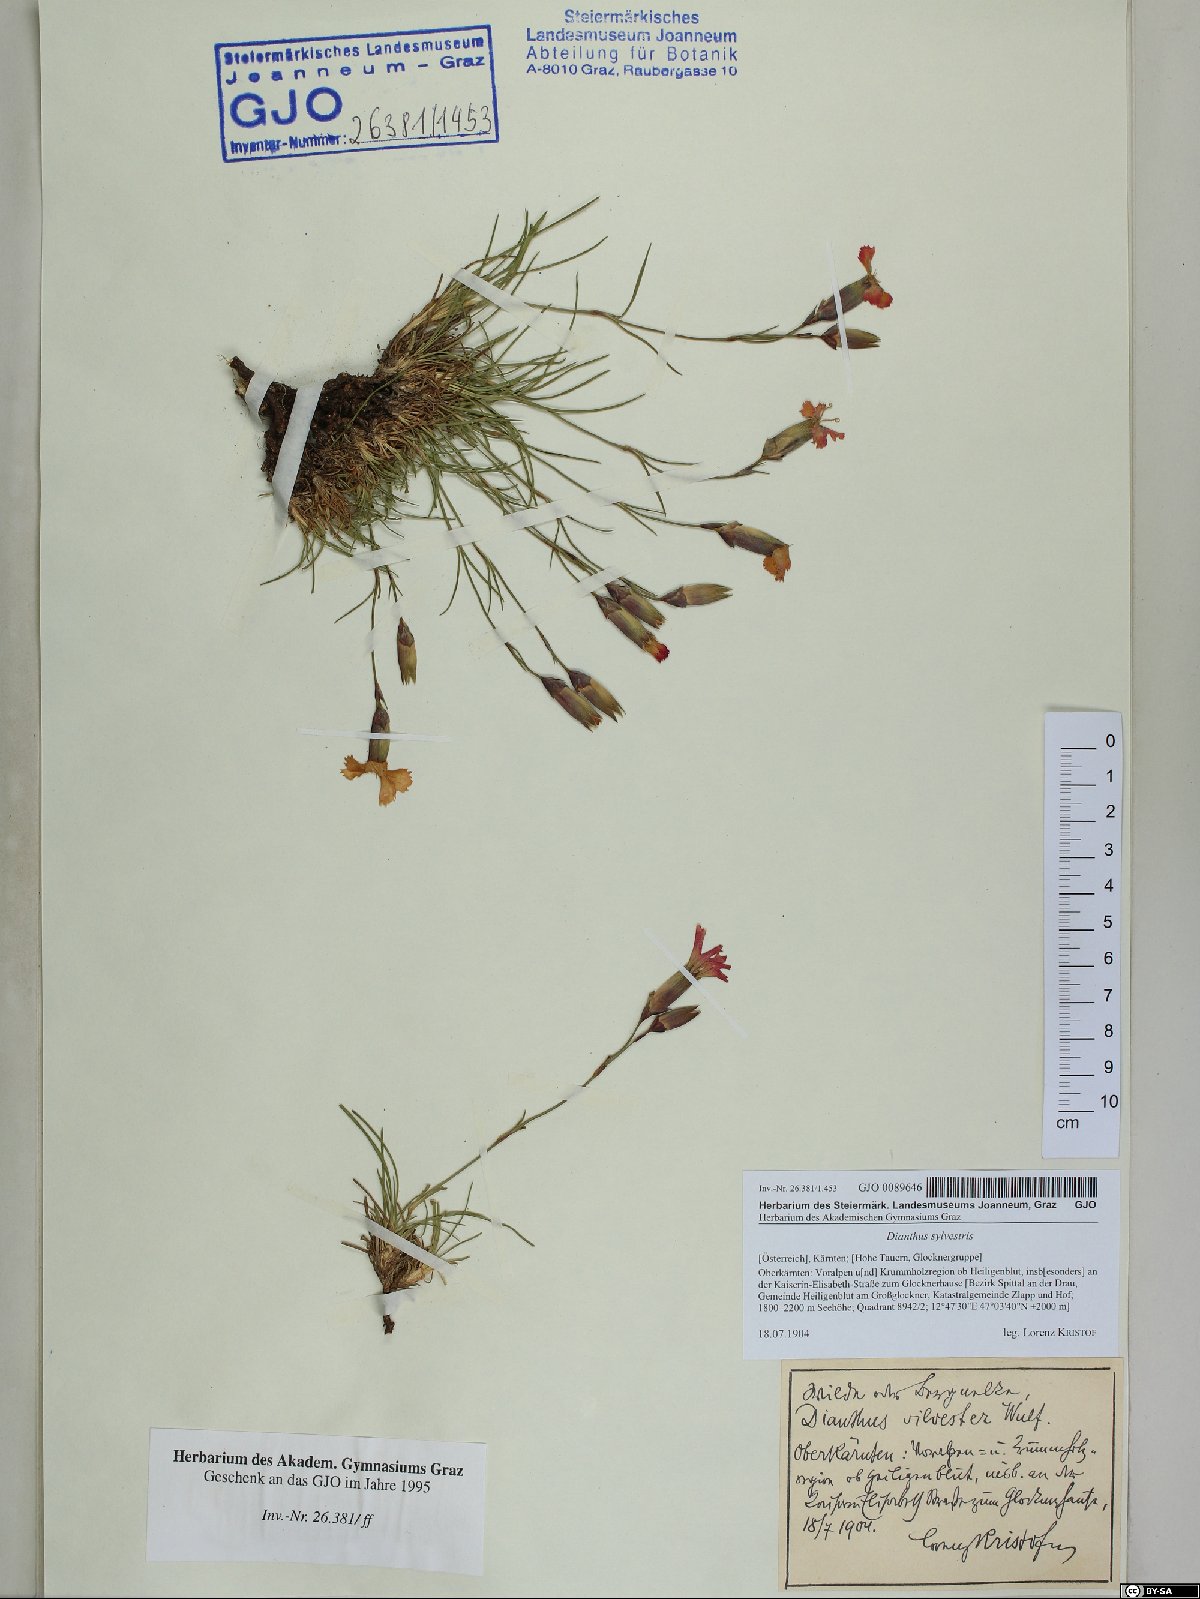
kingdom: Plantae
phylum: Tracheophyta
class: Magnoliopsida
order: Caryophyllales
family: Caryophyllaceae
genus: Dianthus
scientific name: Dianthus sylvestris
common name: Wood pink
